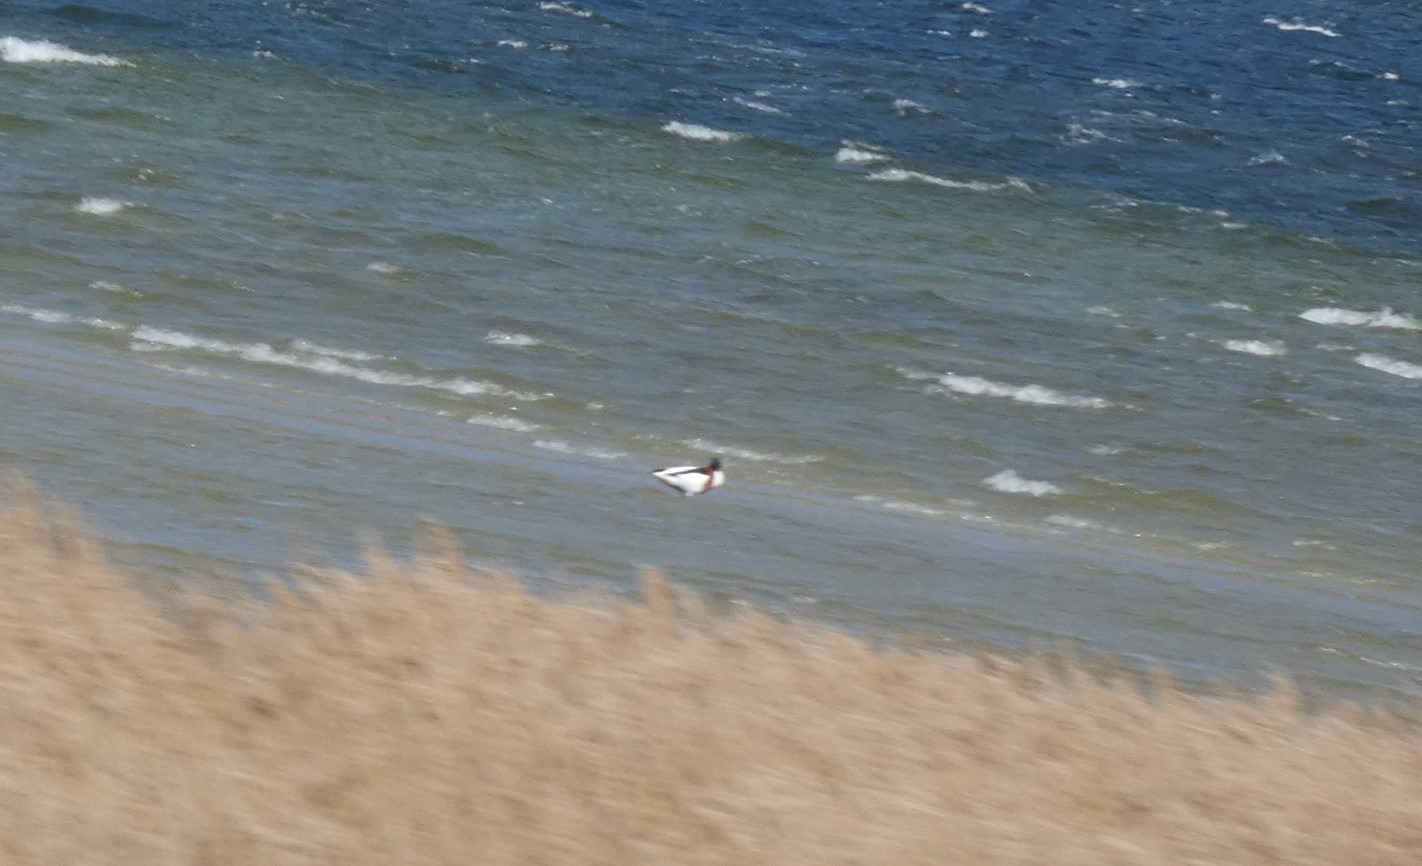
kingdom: Animalia
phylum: Chordata
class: Aves
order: Anseriformes
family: Anatidae
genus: Tadorna
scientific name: Tadorna tadorna
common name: Gravand
